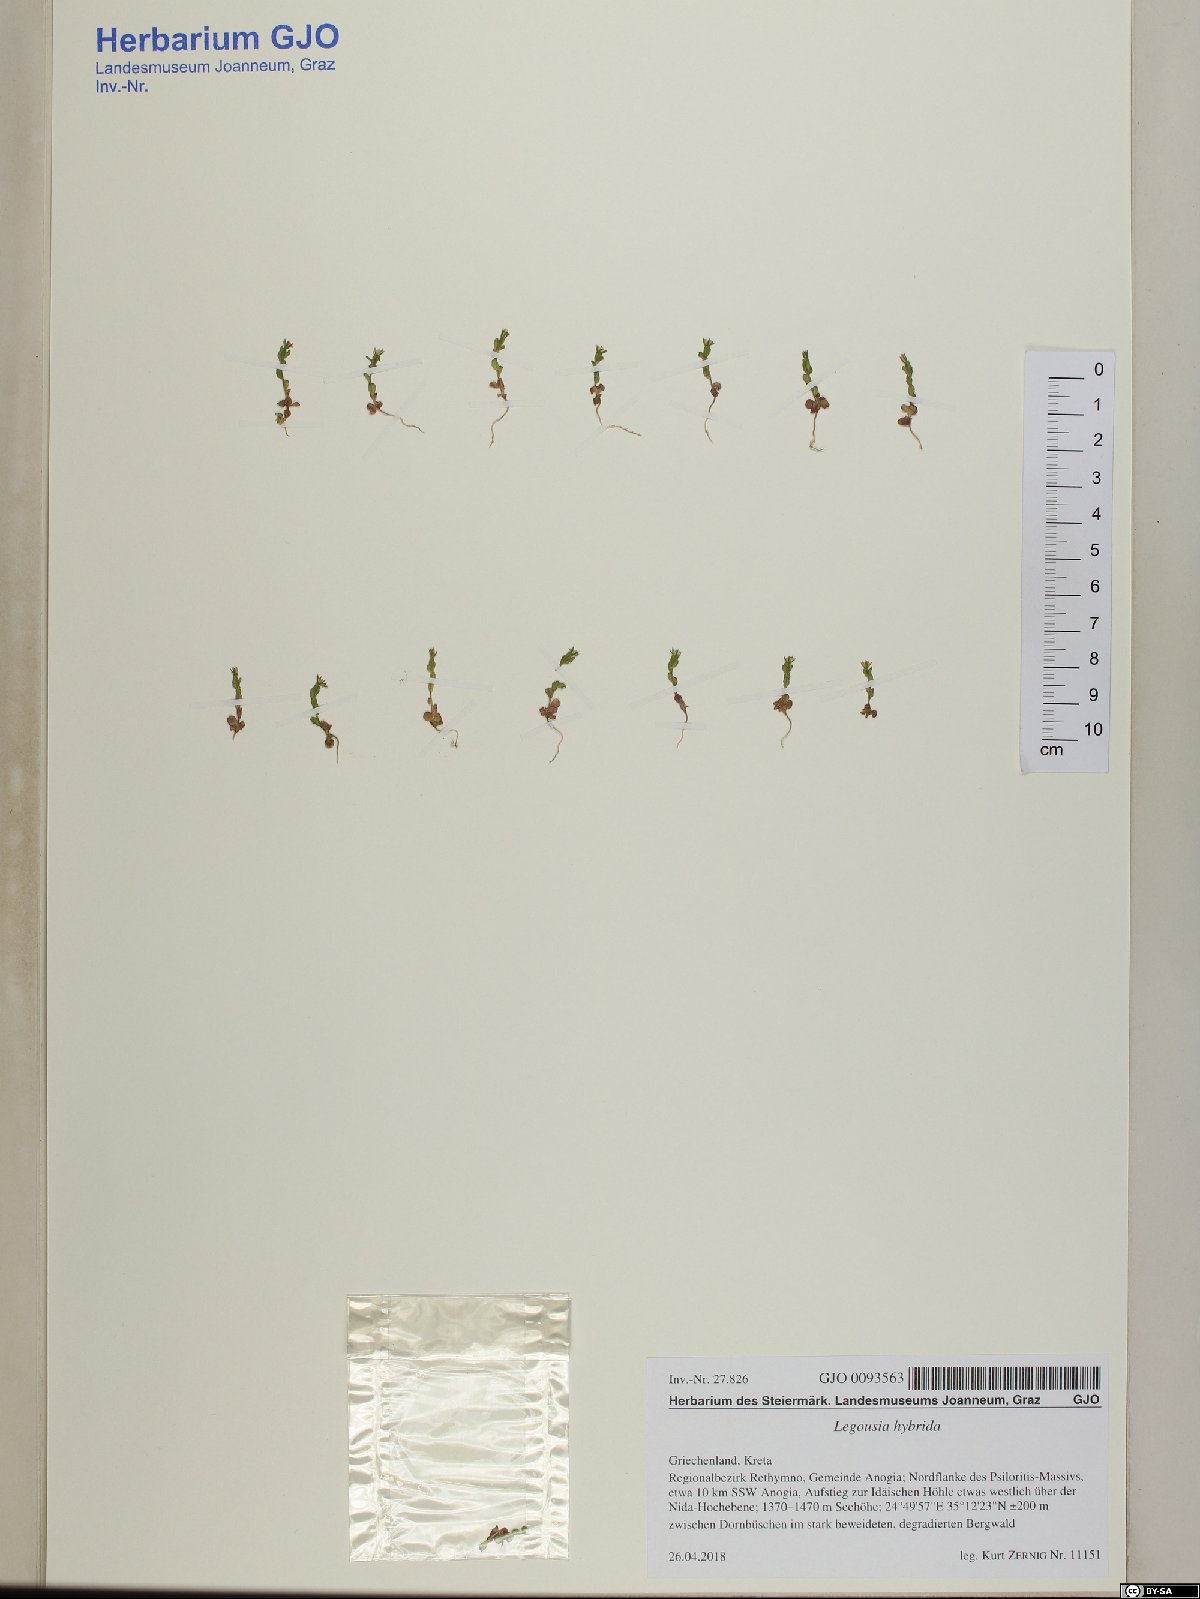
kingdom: Plantae
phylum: Tracheophyta
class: Magnoliopsida
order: Asterales
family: Campanulaceae
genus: Legousia
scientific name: Legousia hybrida
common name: Venus's-looking-glass
